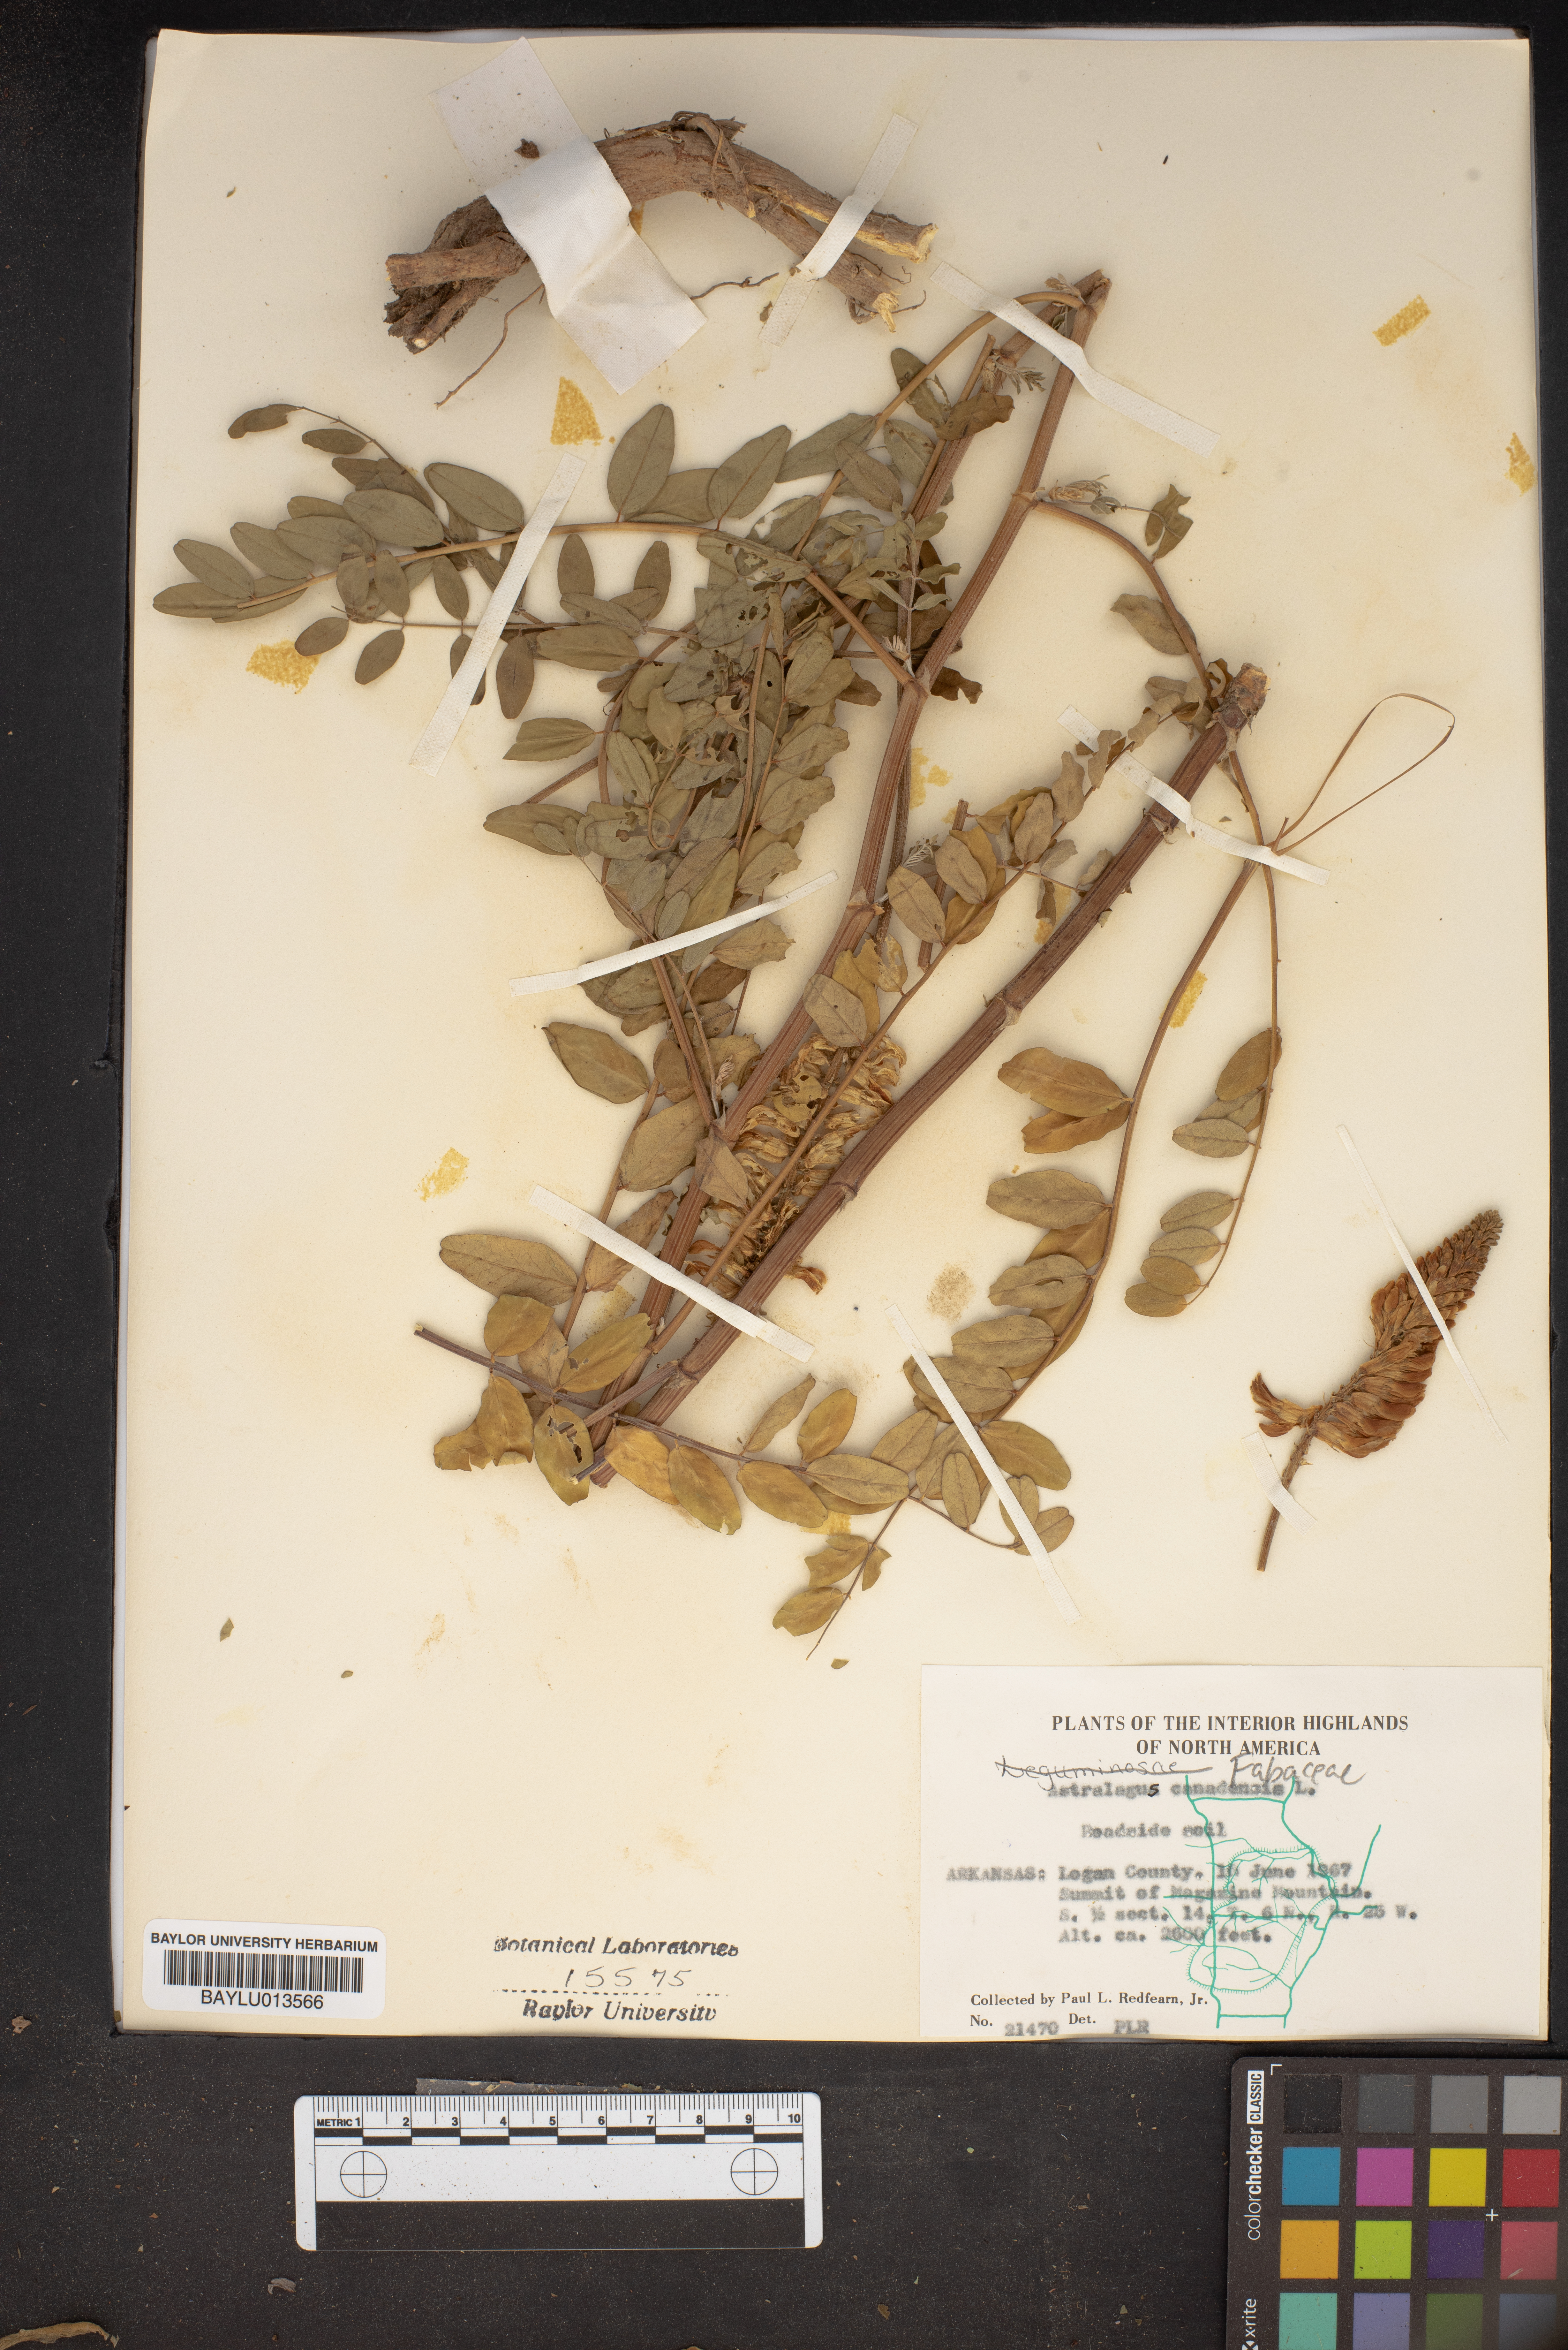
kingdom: Plantae
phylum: Tracheophyta
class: Magnoliopsida
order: Fabales
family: Fabaceae
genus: Astragalus
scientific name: Astragalus canadensis
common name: Canada milk-vetch
